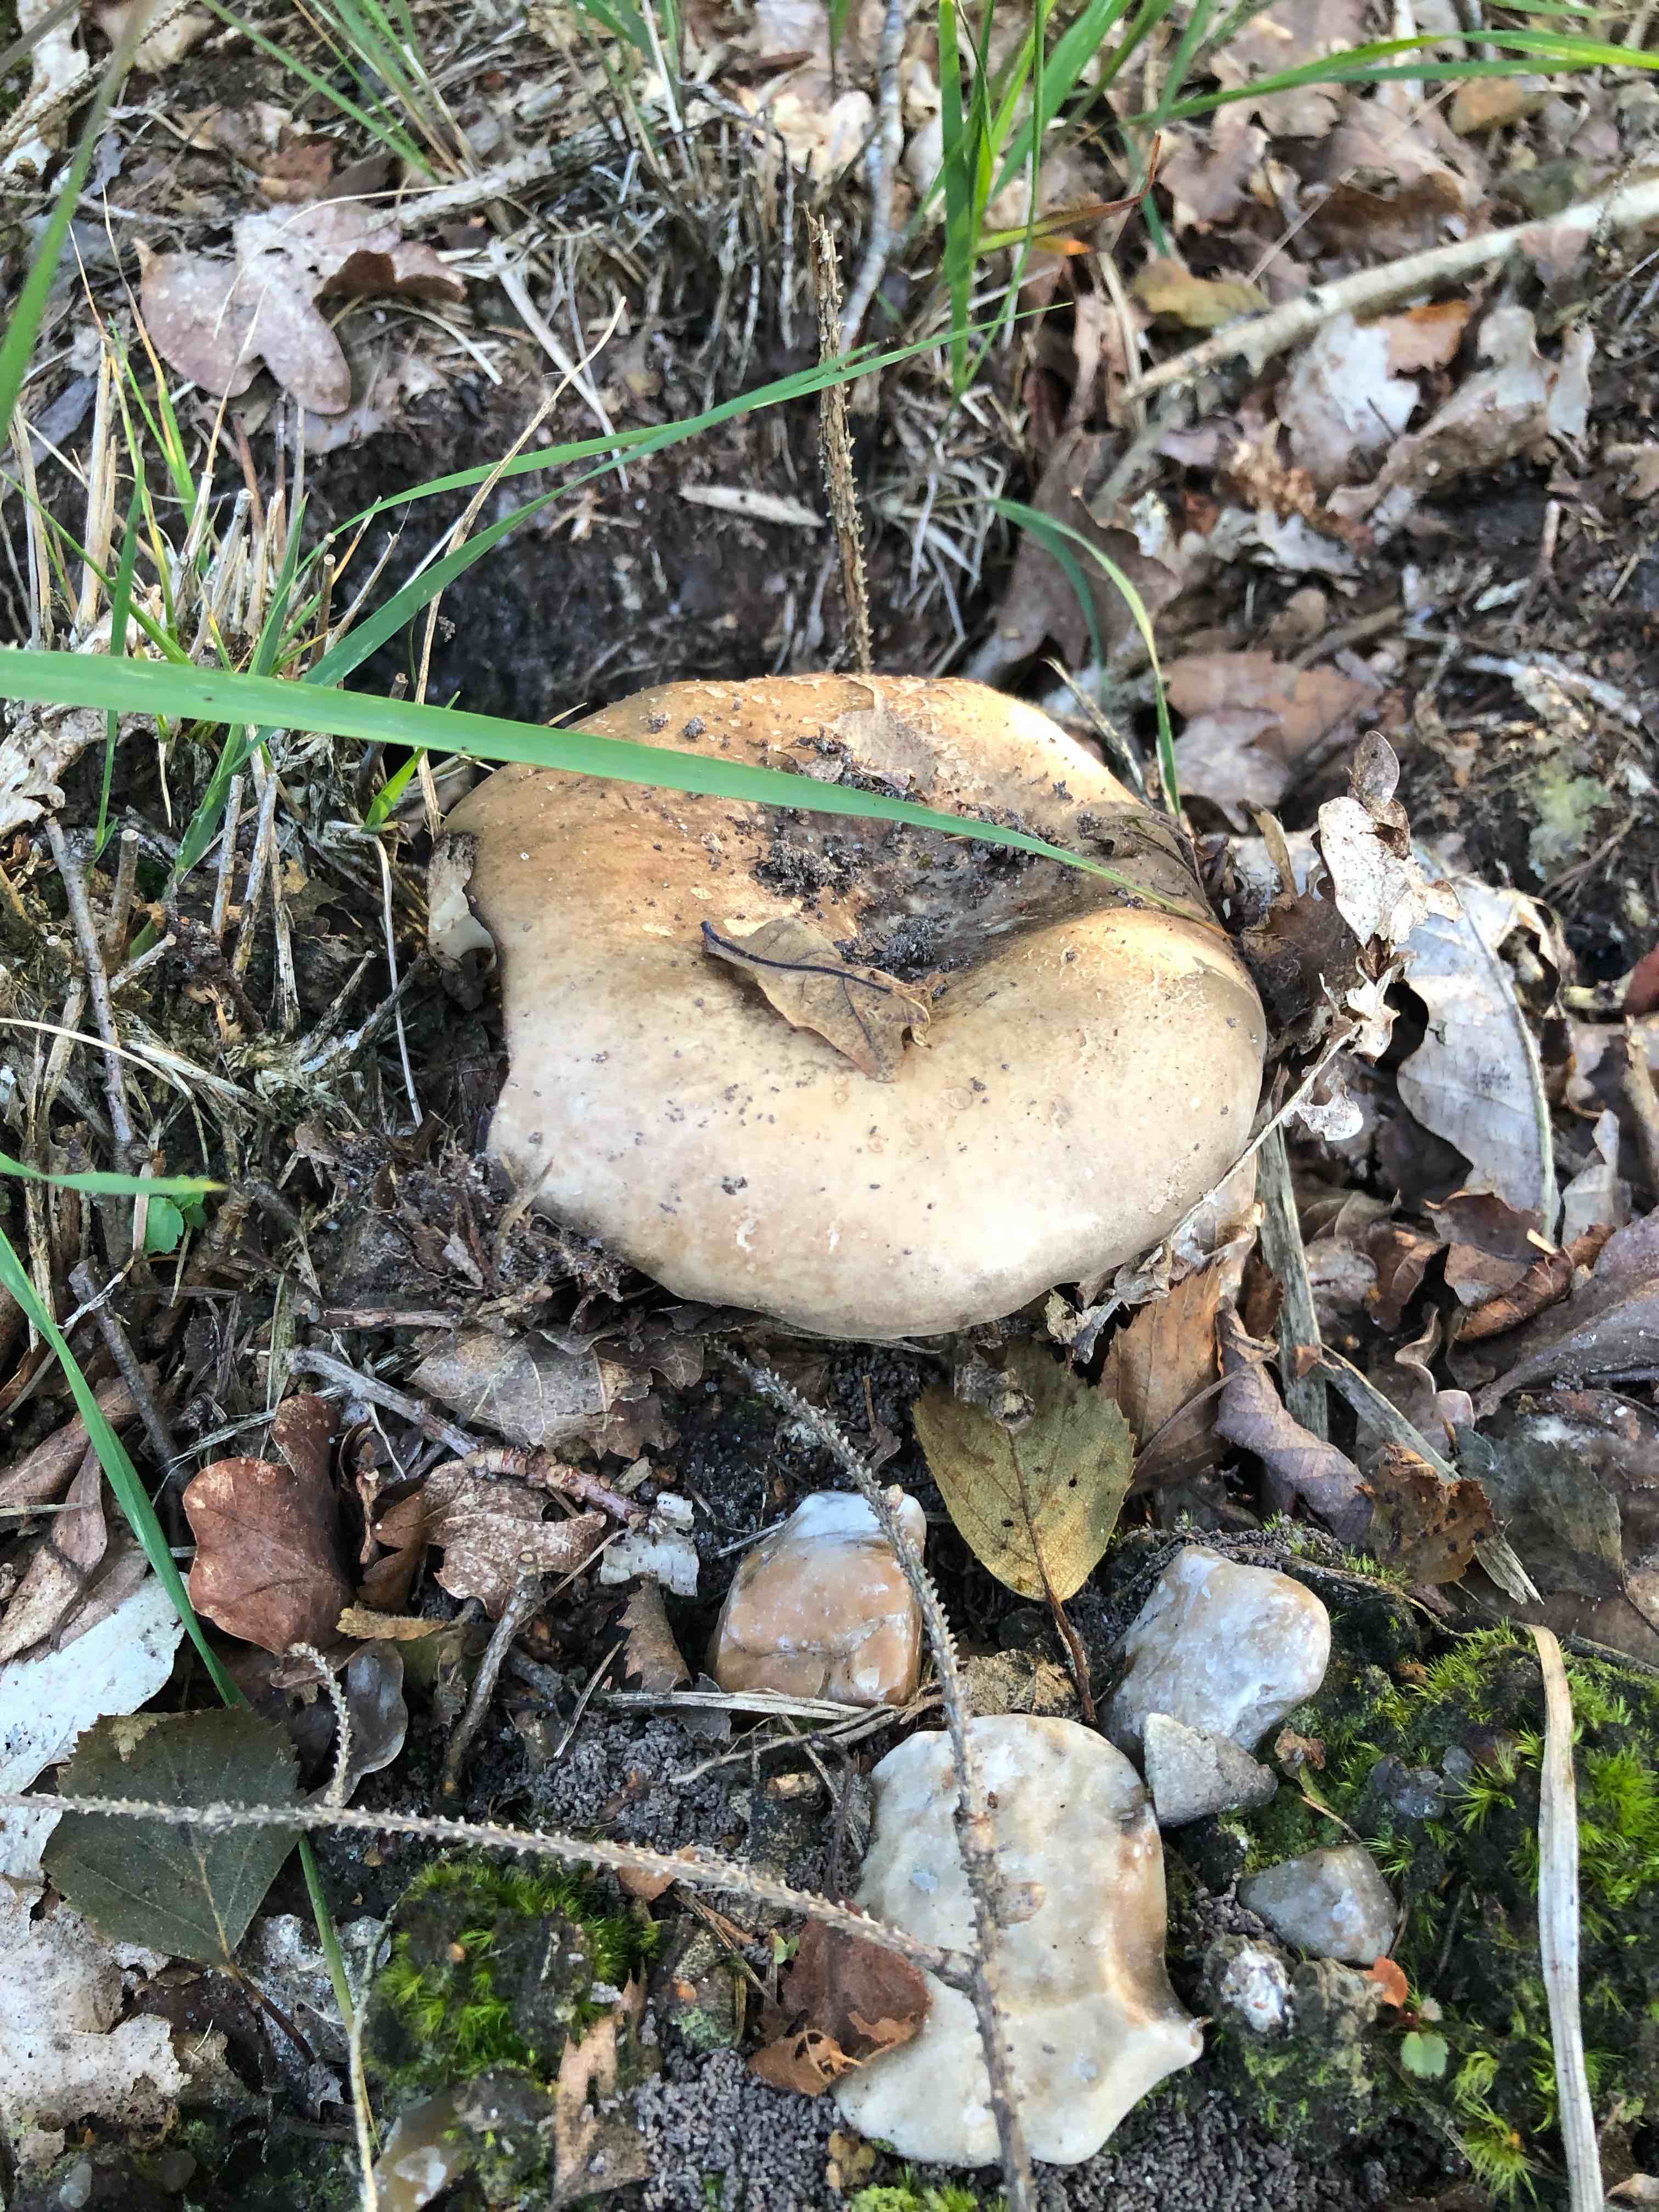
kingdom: Fungi
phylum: Basidiomycota
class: Agaricomycetes
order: Russulales
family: Russulaceae
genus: Russula
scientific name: Russula adusta
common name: sværtende skørhat
